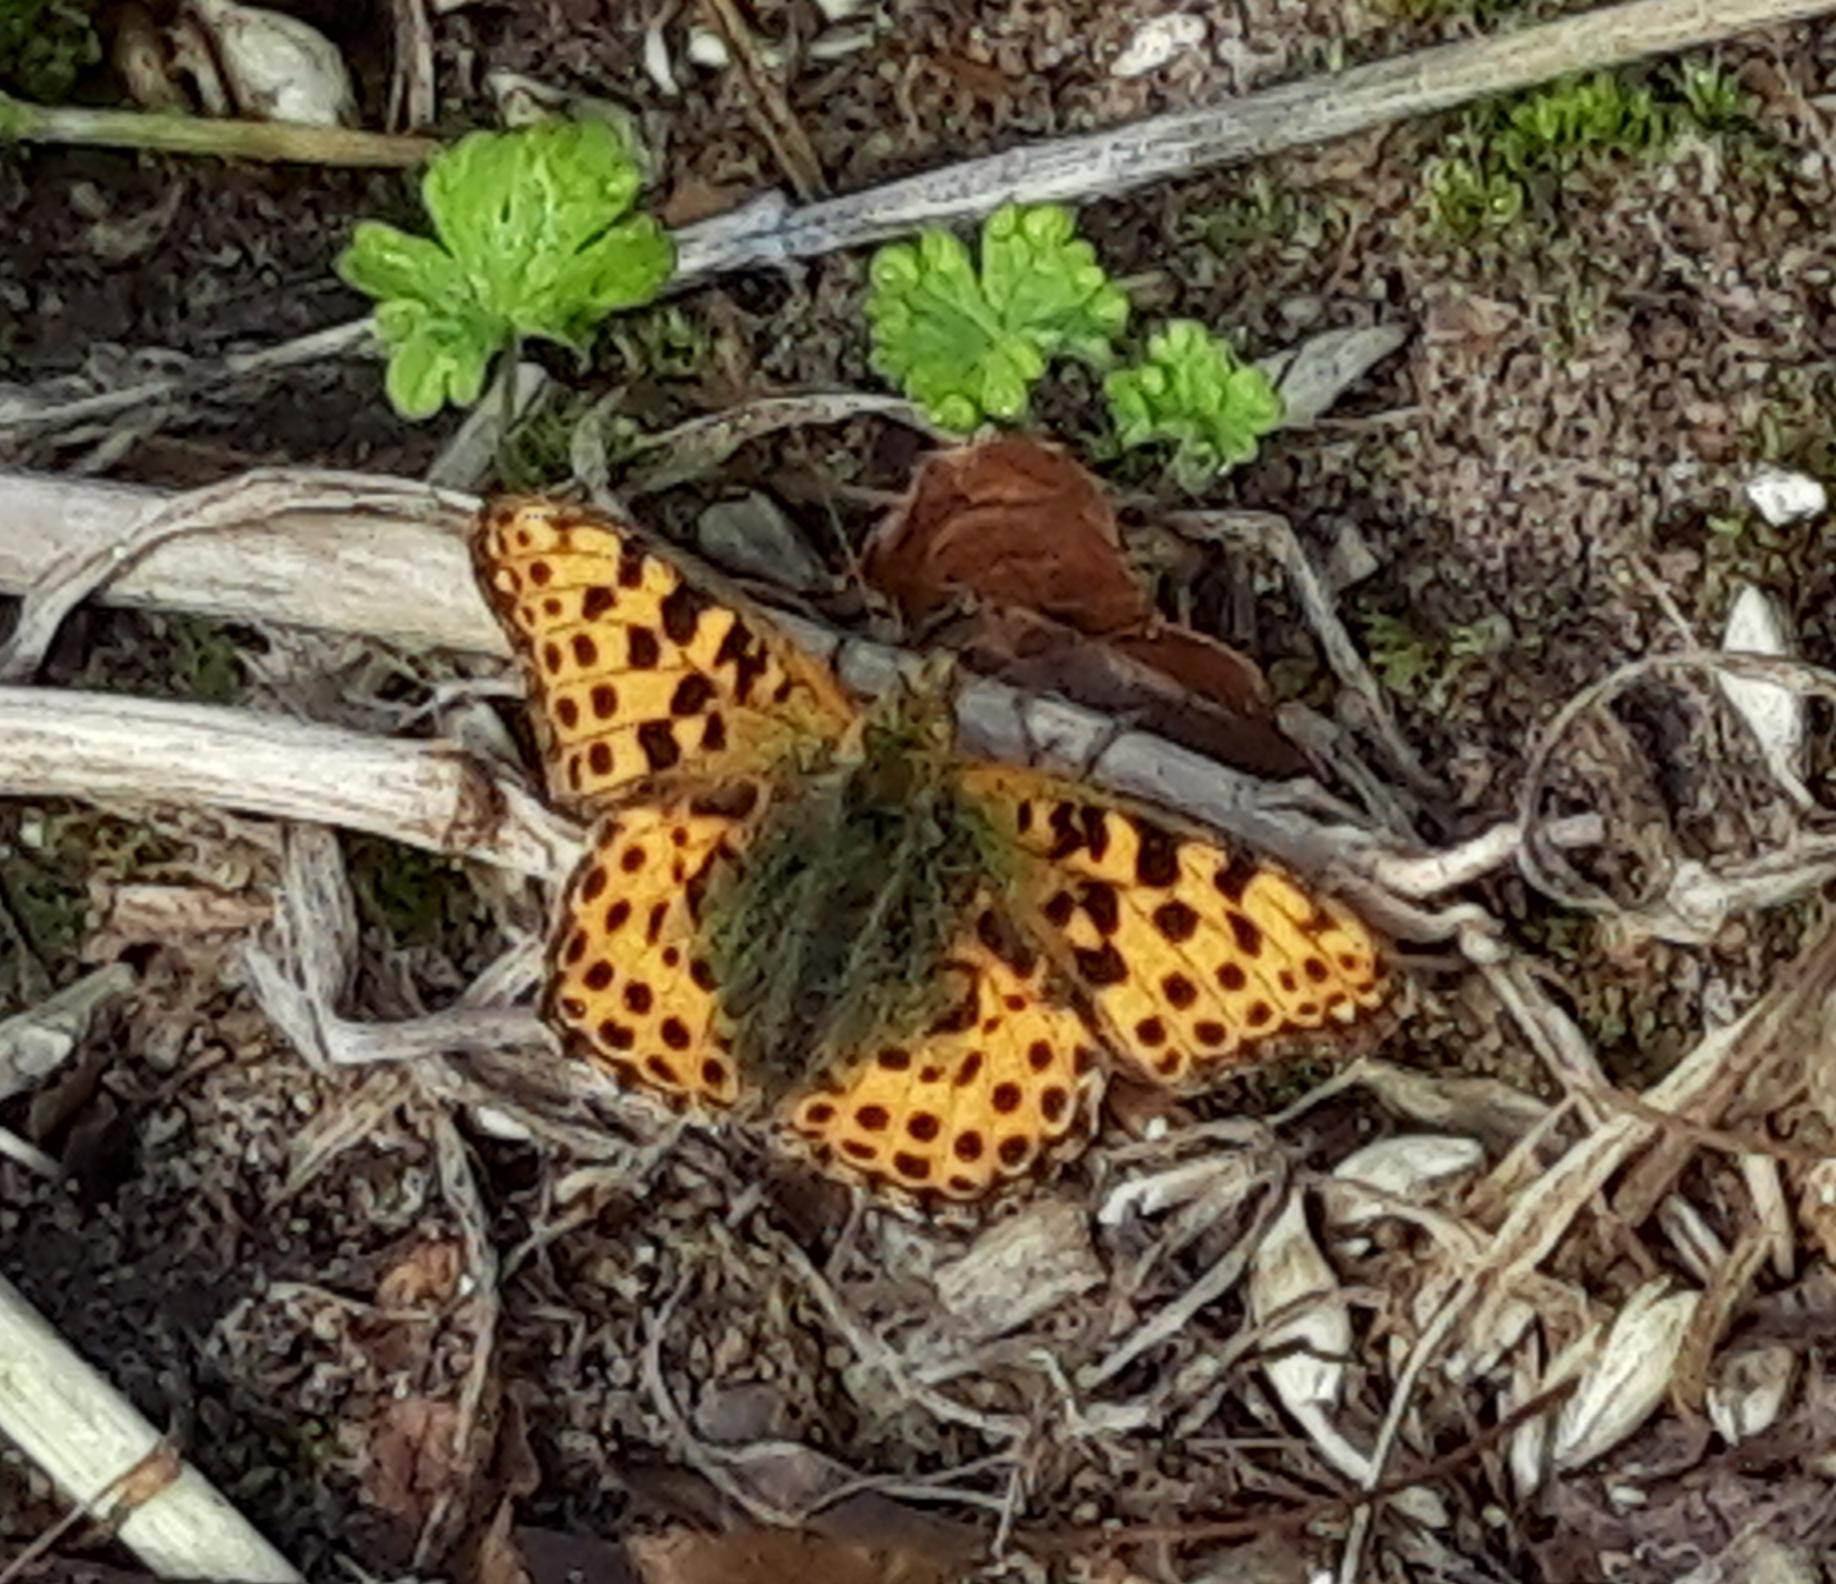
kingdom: Animalia
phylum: Arthropoda
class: Insecta
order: Lepidoptera
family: Nymphalidae
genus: Issoria
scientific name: Issoria lathonia
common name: Storplettet perlemorsommerfugl
